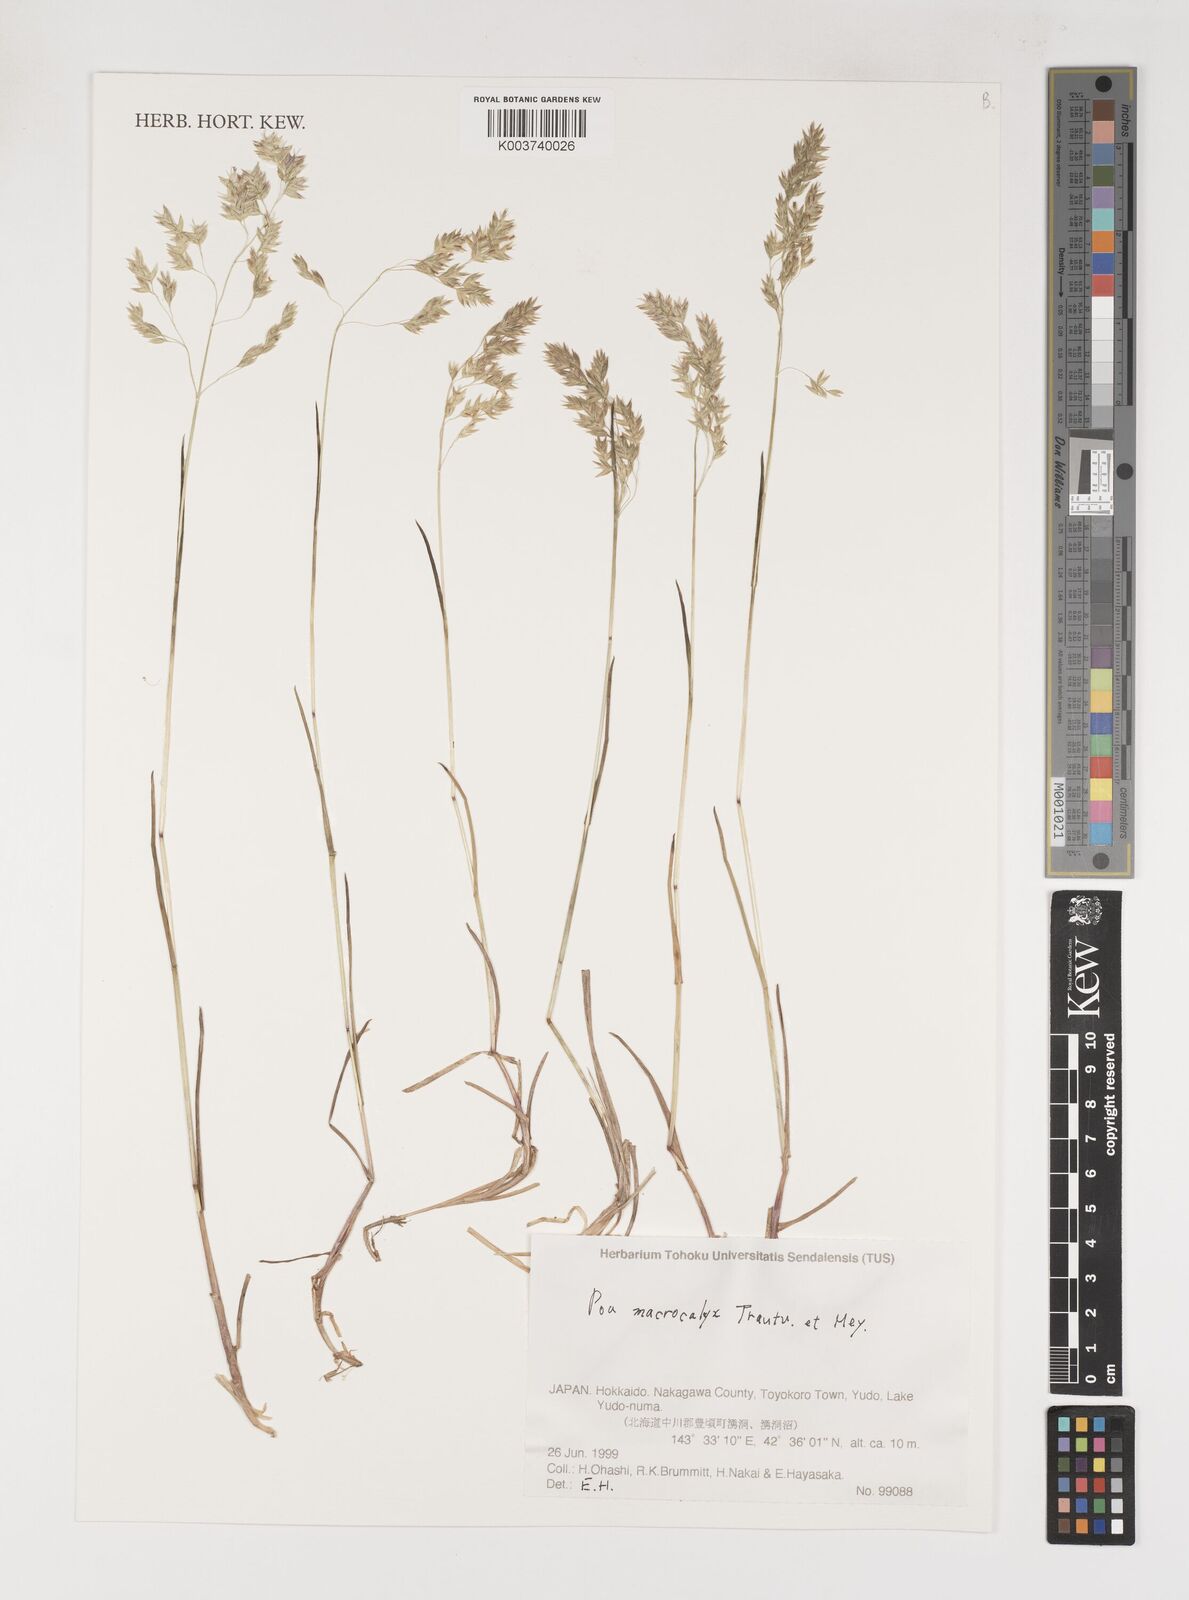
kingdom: Plantae
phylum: Tracheophyta
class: Liliopsida
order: Poales
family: Poaceae
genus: Poa
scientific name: Poa macrocalyx
